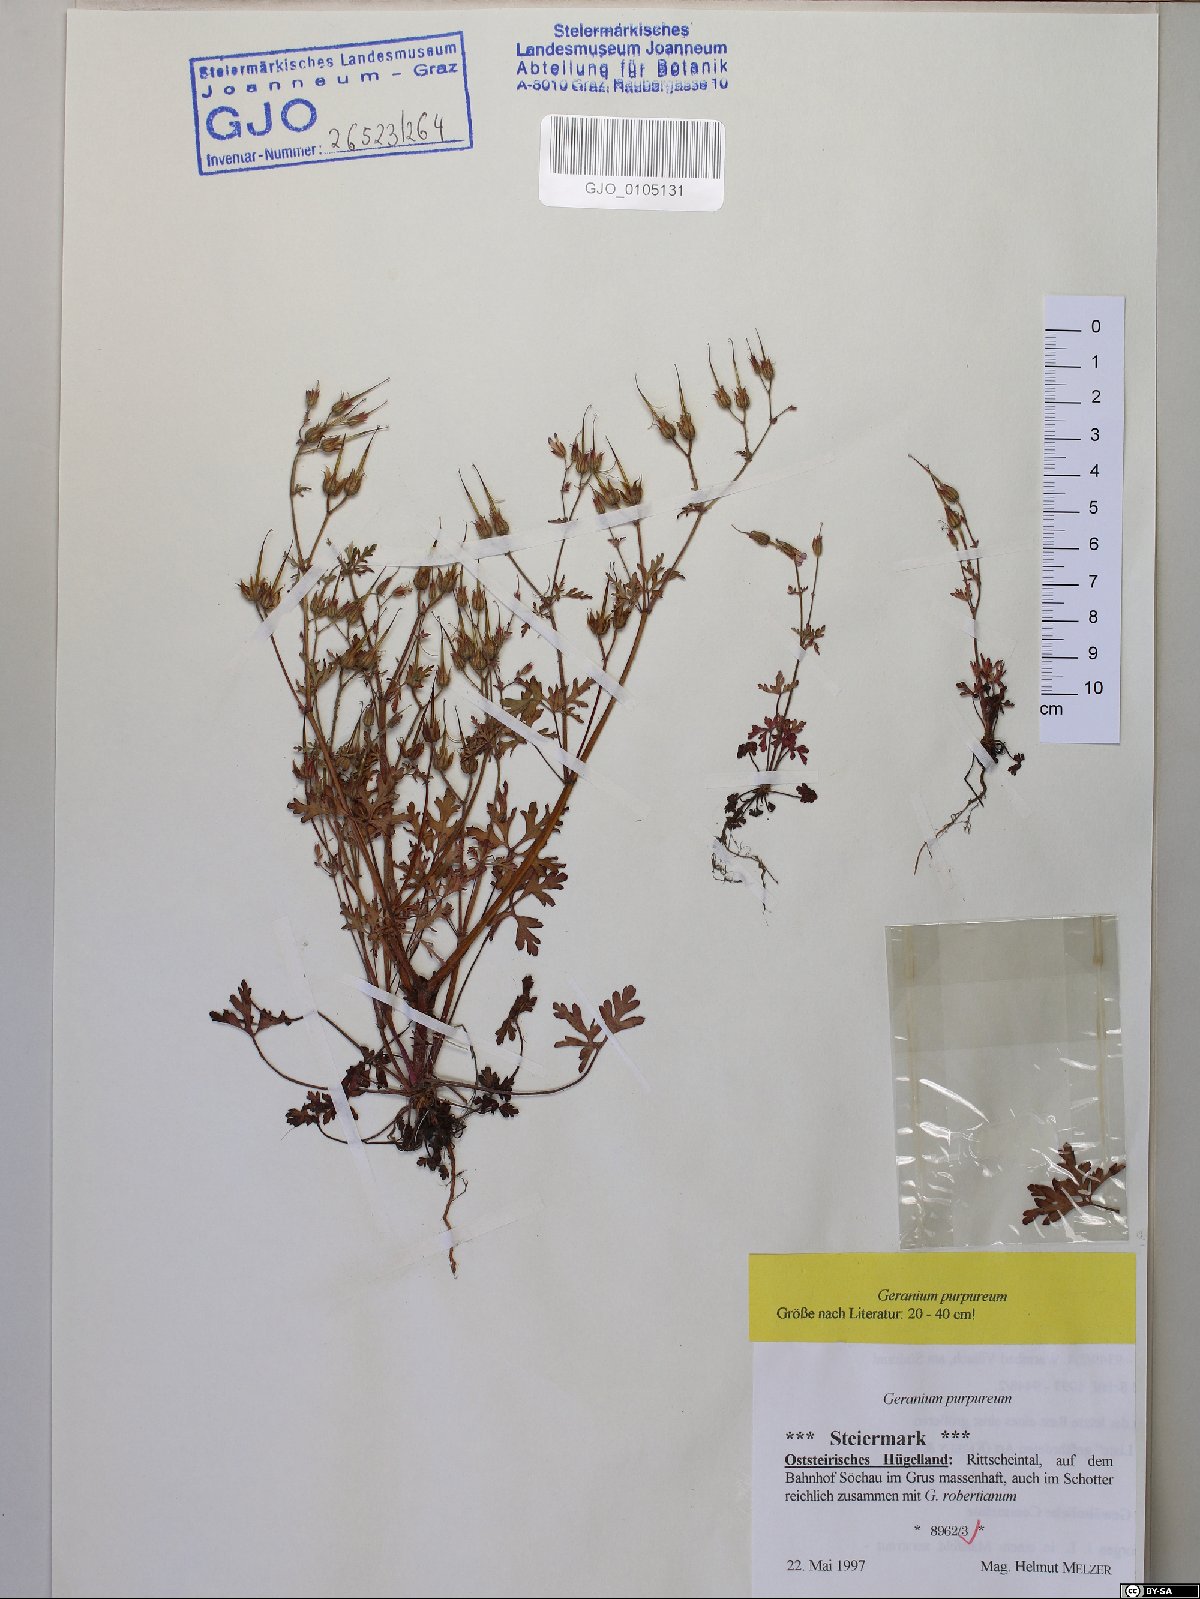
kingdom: Plantae
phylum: Tracheophyta
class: Magnoliopsida
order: Geraniales
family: Geraniaceae
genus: Geranium
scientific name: Geranium purpureum
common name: Little-robin
